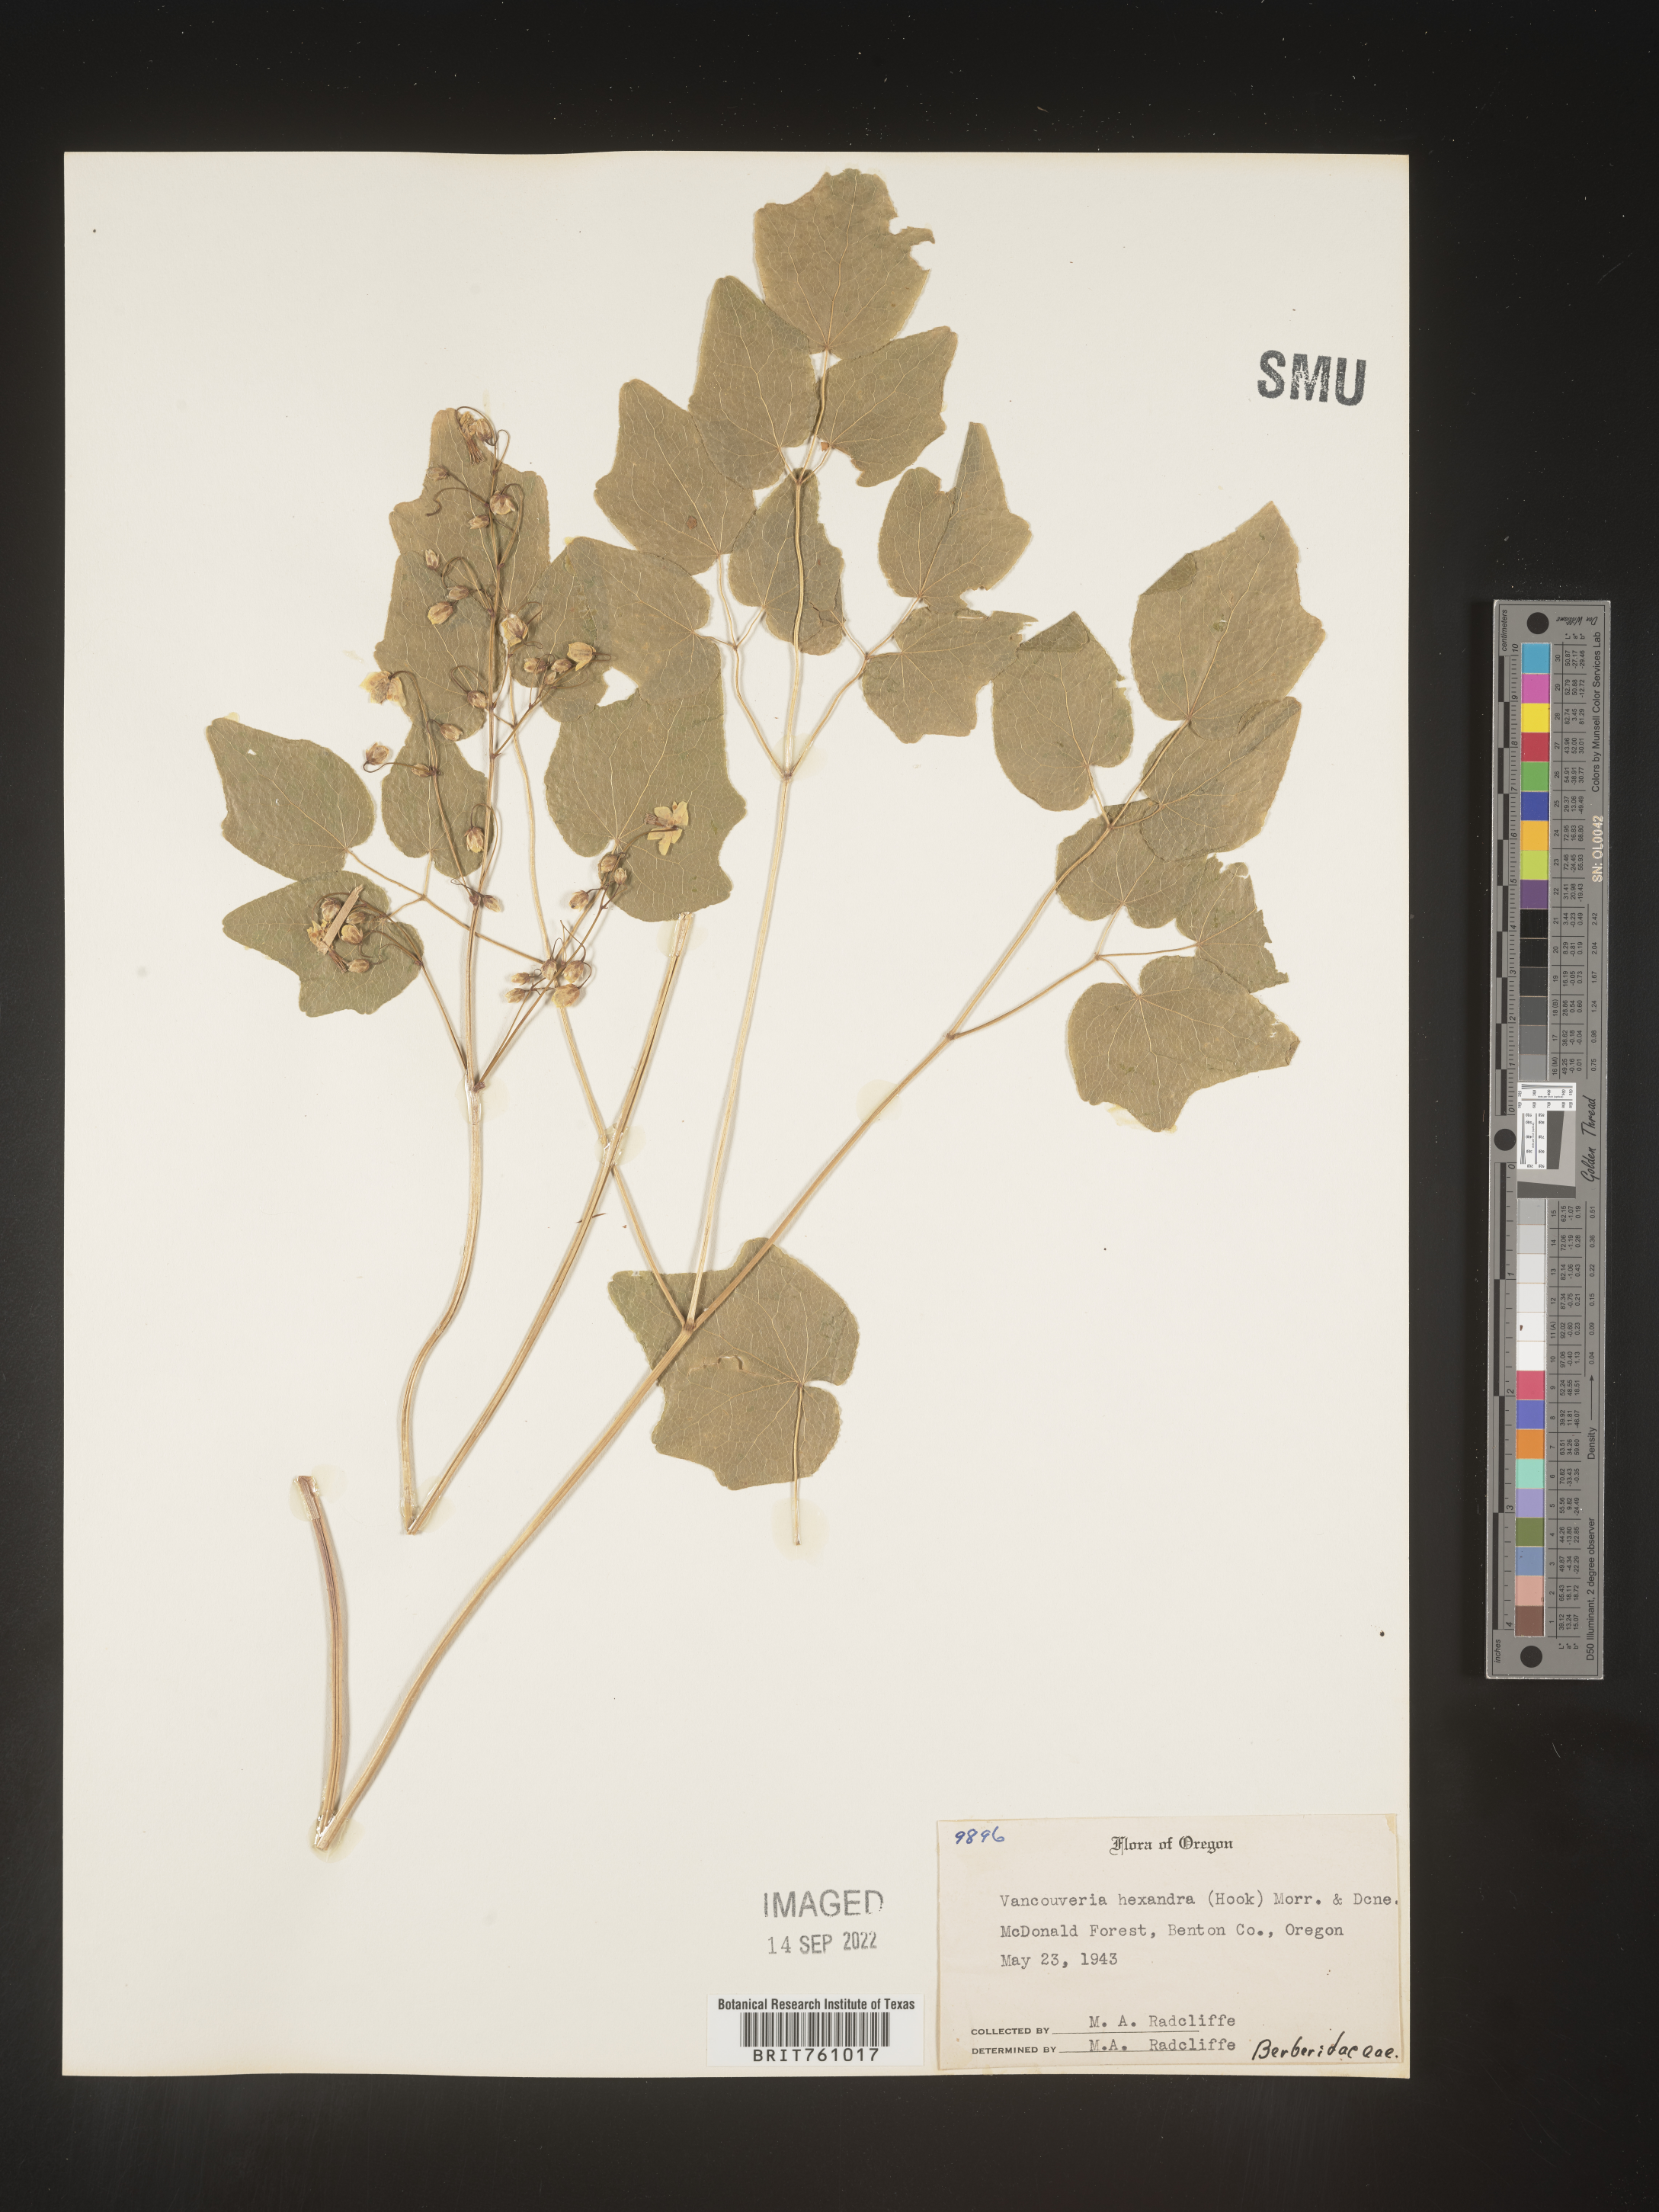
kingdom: Plantae
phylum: Tracheophyta
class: Magnoliopsida
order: Ranunculales
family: Berberidaceae
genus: Vancouveria
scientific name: Vancouveria
